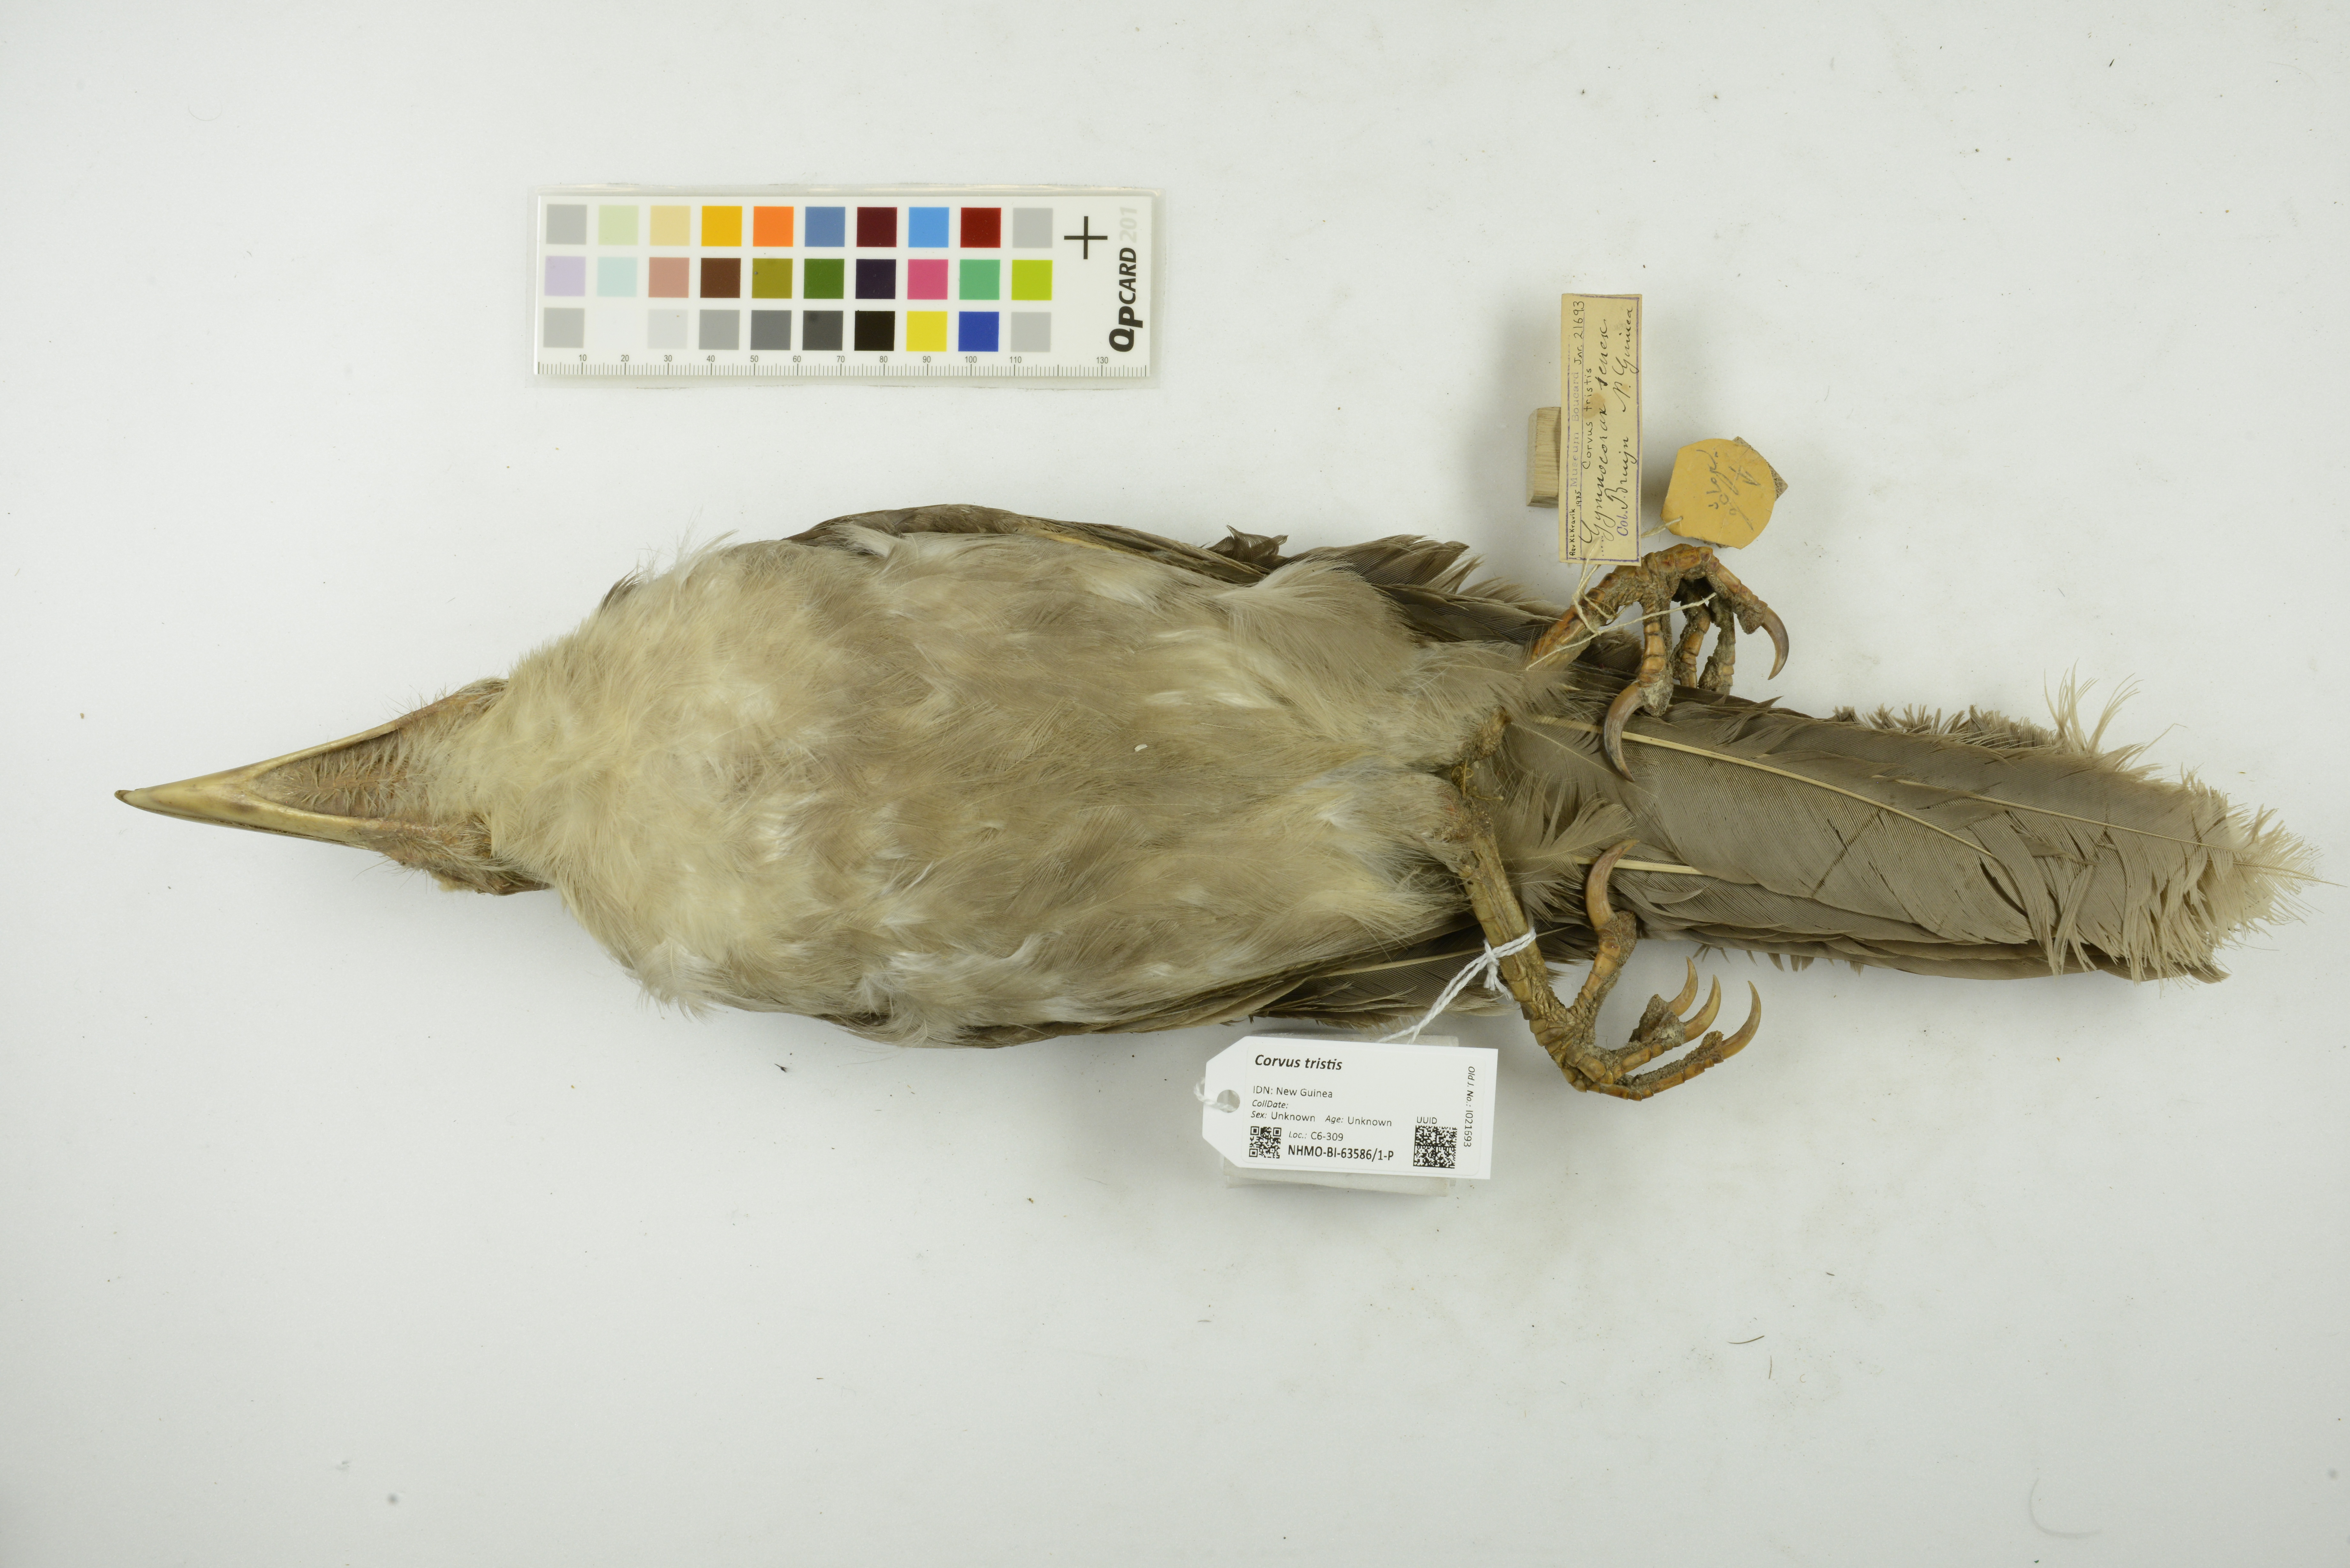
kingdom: Animalia
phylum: Chordata
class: Aves
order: Passeriformes
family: Corvidae
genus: Corvus
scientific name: Corvus tristis
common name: Grey crow
